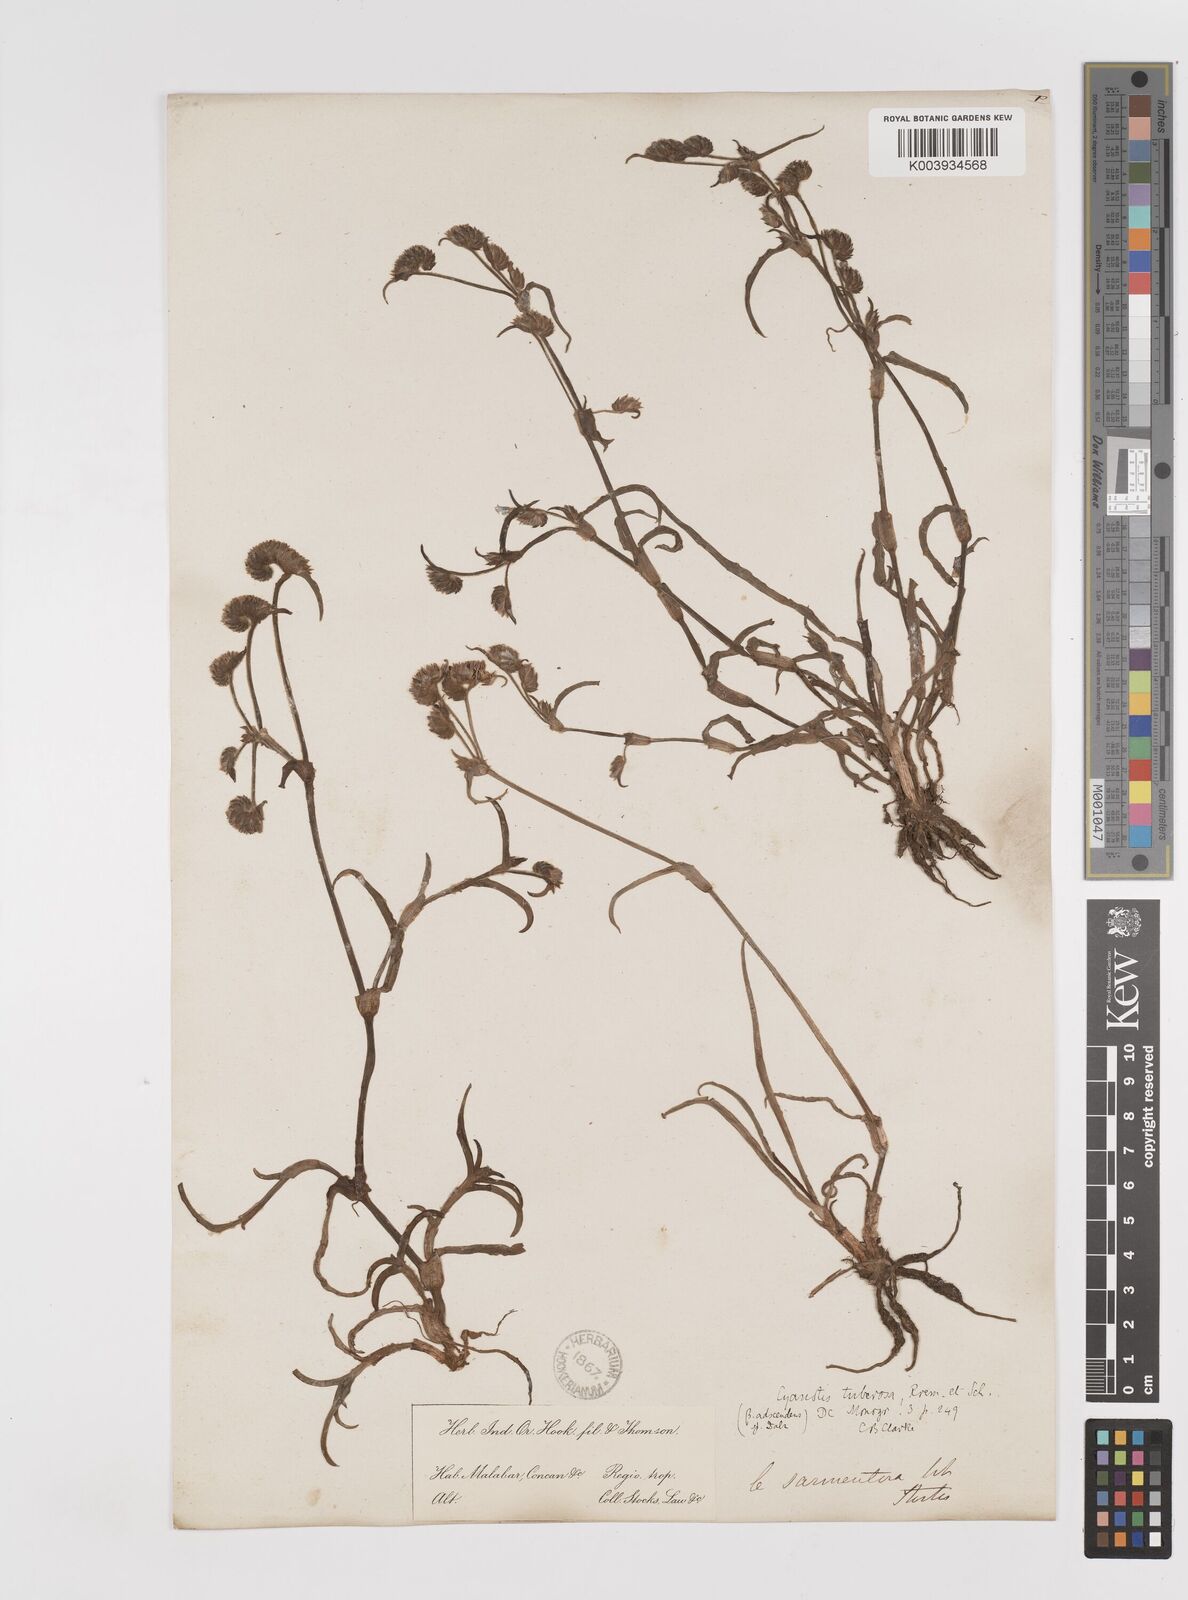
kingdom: Plantae
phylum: Tracheophyta
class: Liliopsida
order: Commelinales
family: Commelinaceae
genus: Cyanotis
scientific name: Cyanotis tuberosa
